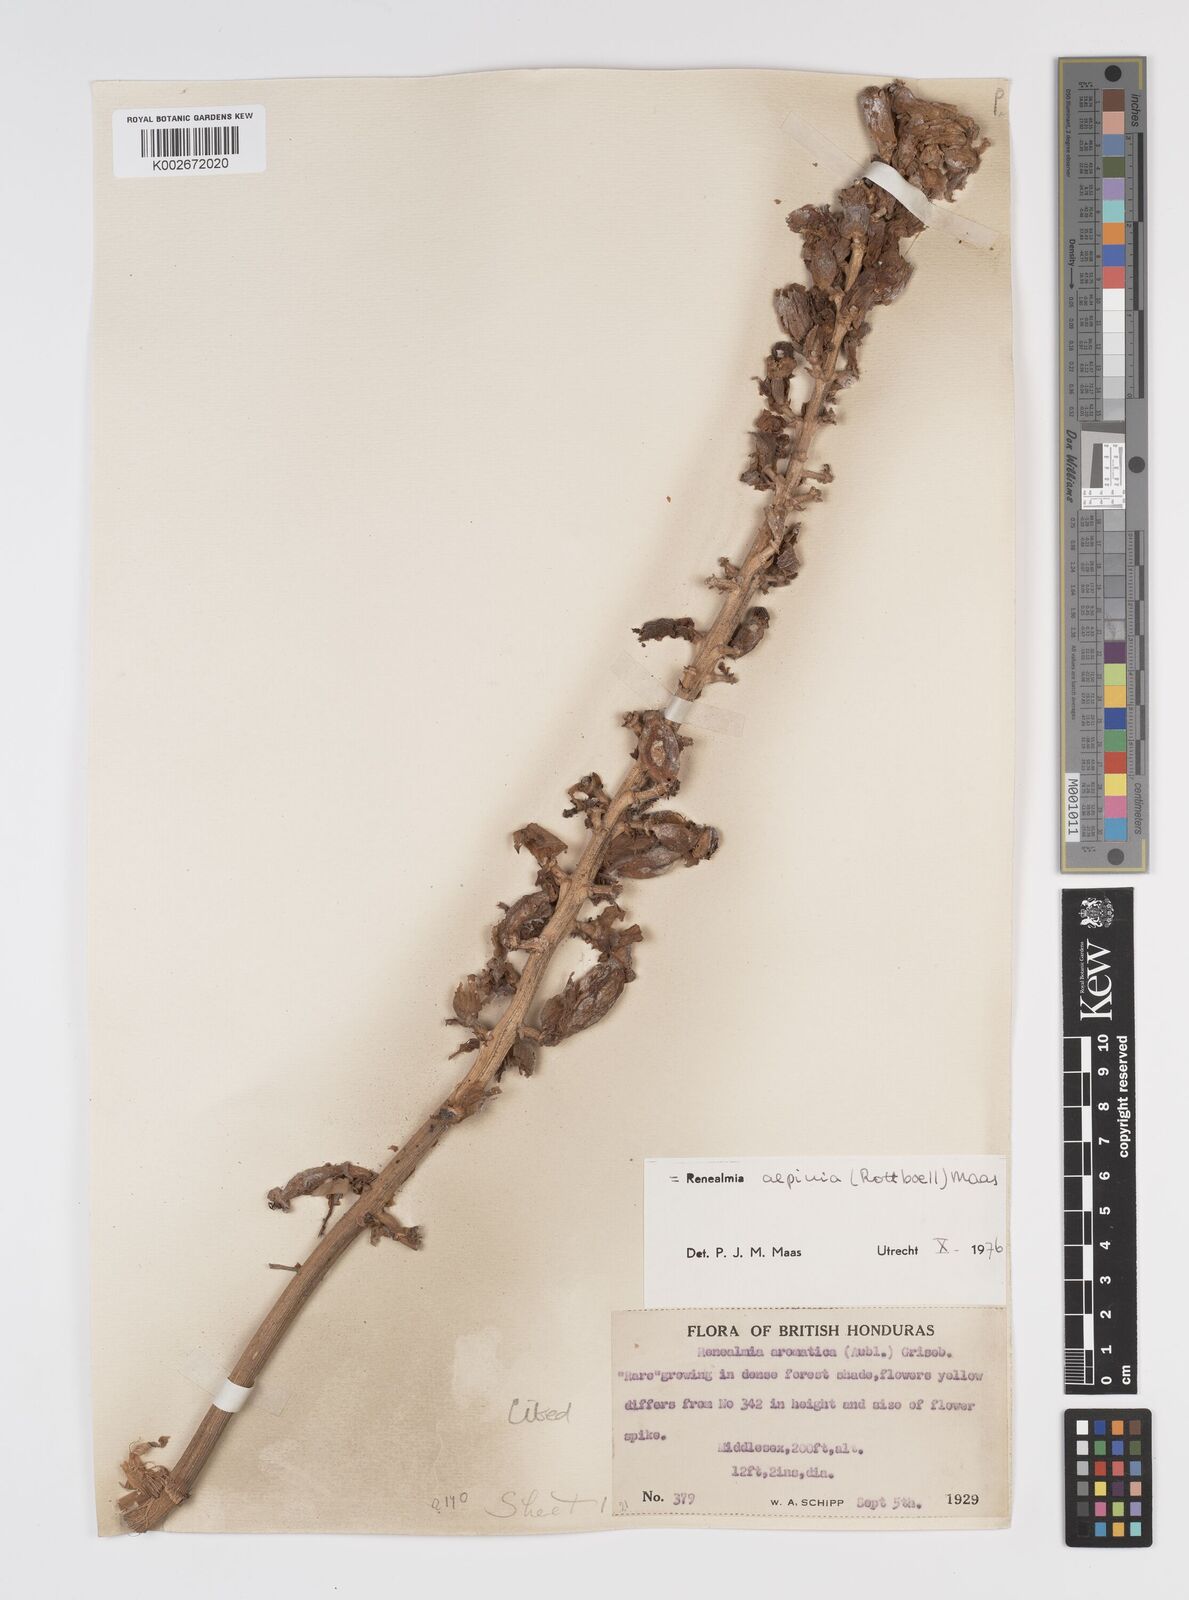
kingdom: Plantae
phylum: Tracheophyta
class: Liliopsida
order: Zingiberales
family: Zingiberaceae
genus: Renealmia
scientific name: Renealmia alpinia
